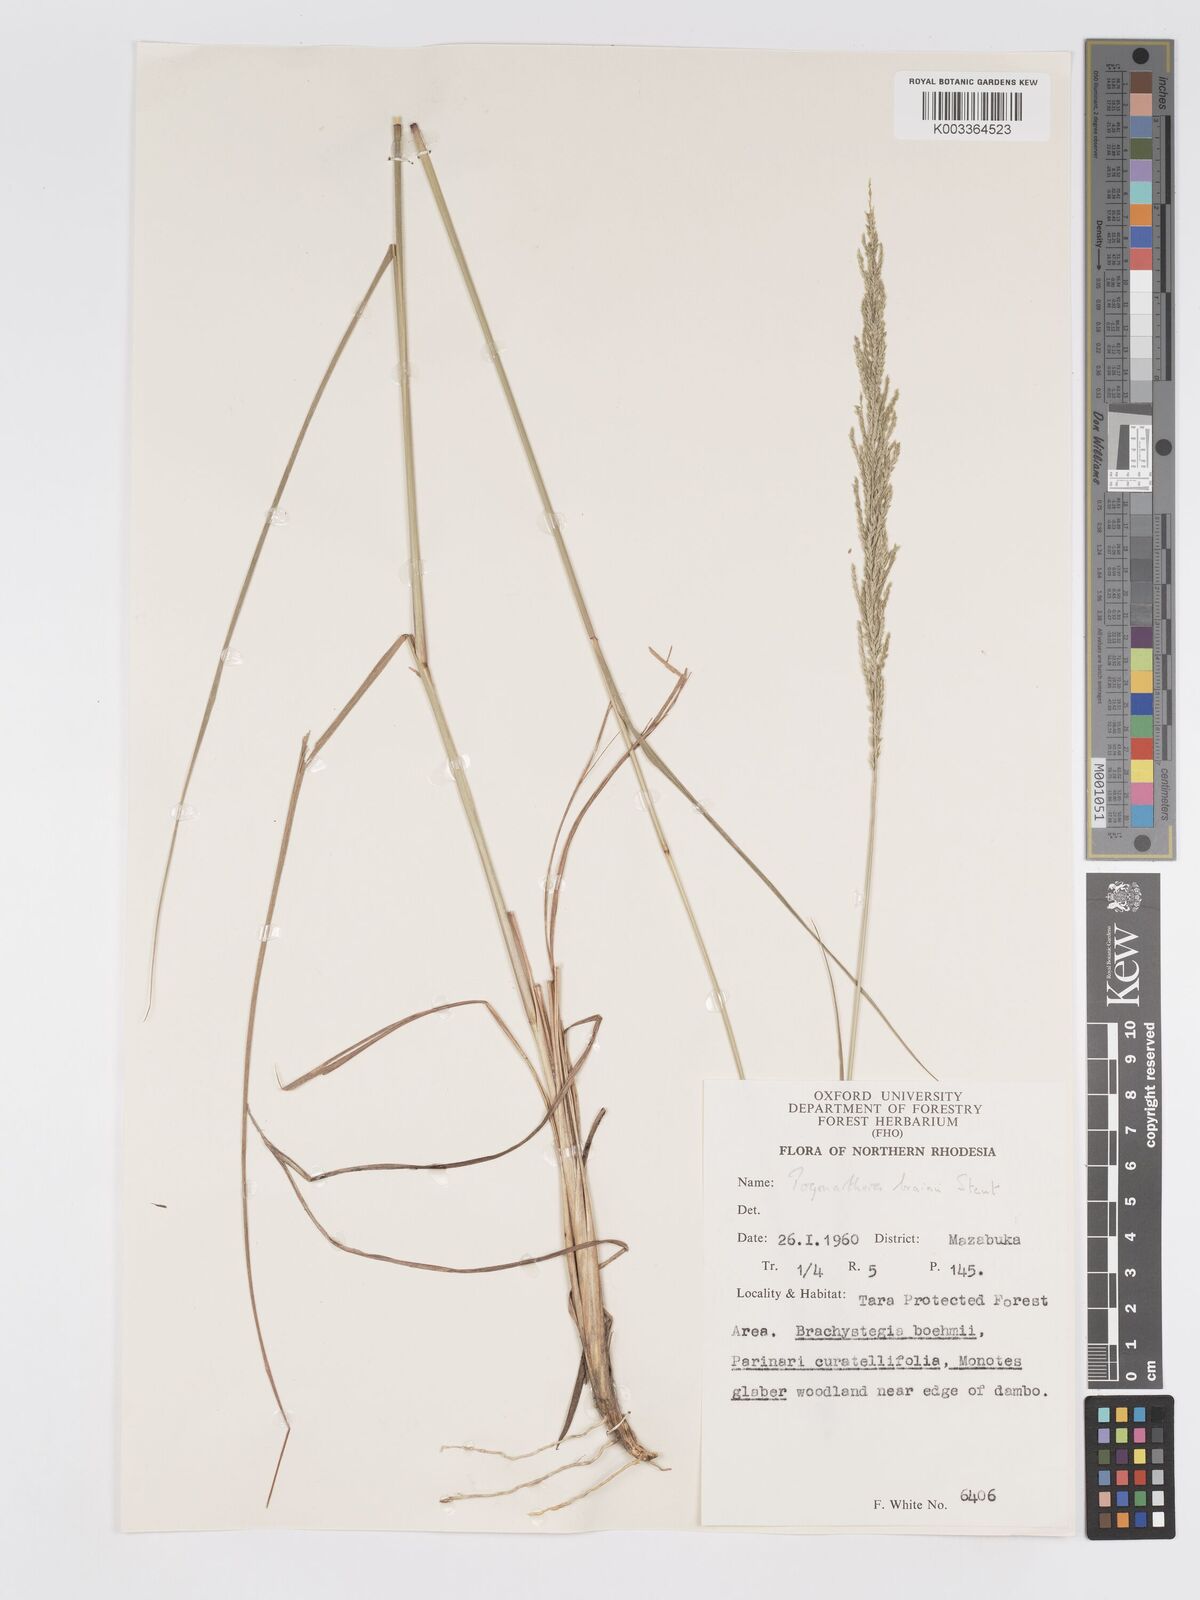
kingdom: Plantae
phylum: Tracheophyta
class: Liliopsida
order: Poales
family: Poaceae
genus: Eragrostis
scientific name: Eragrostis brainii
